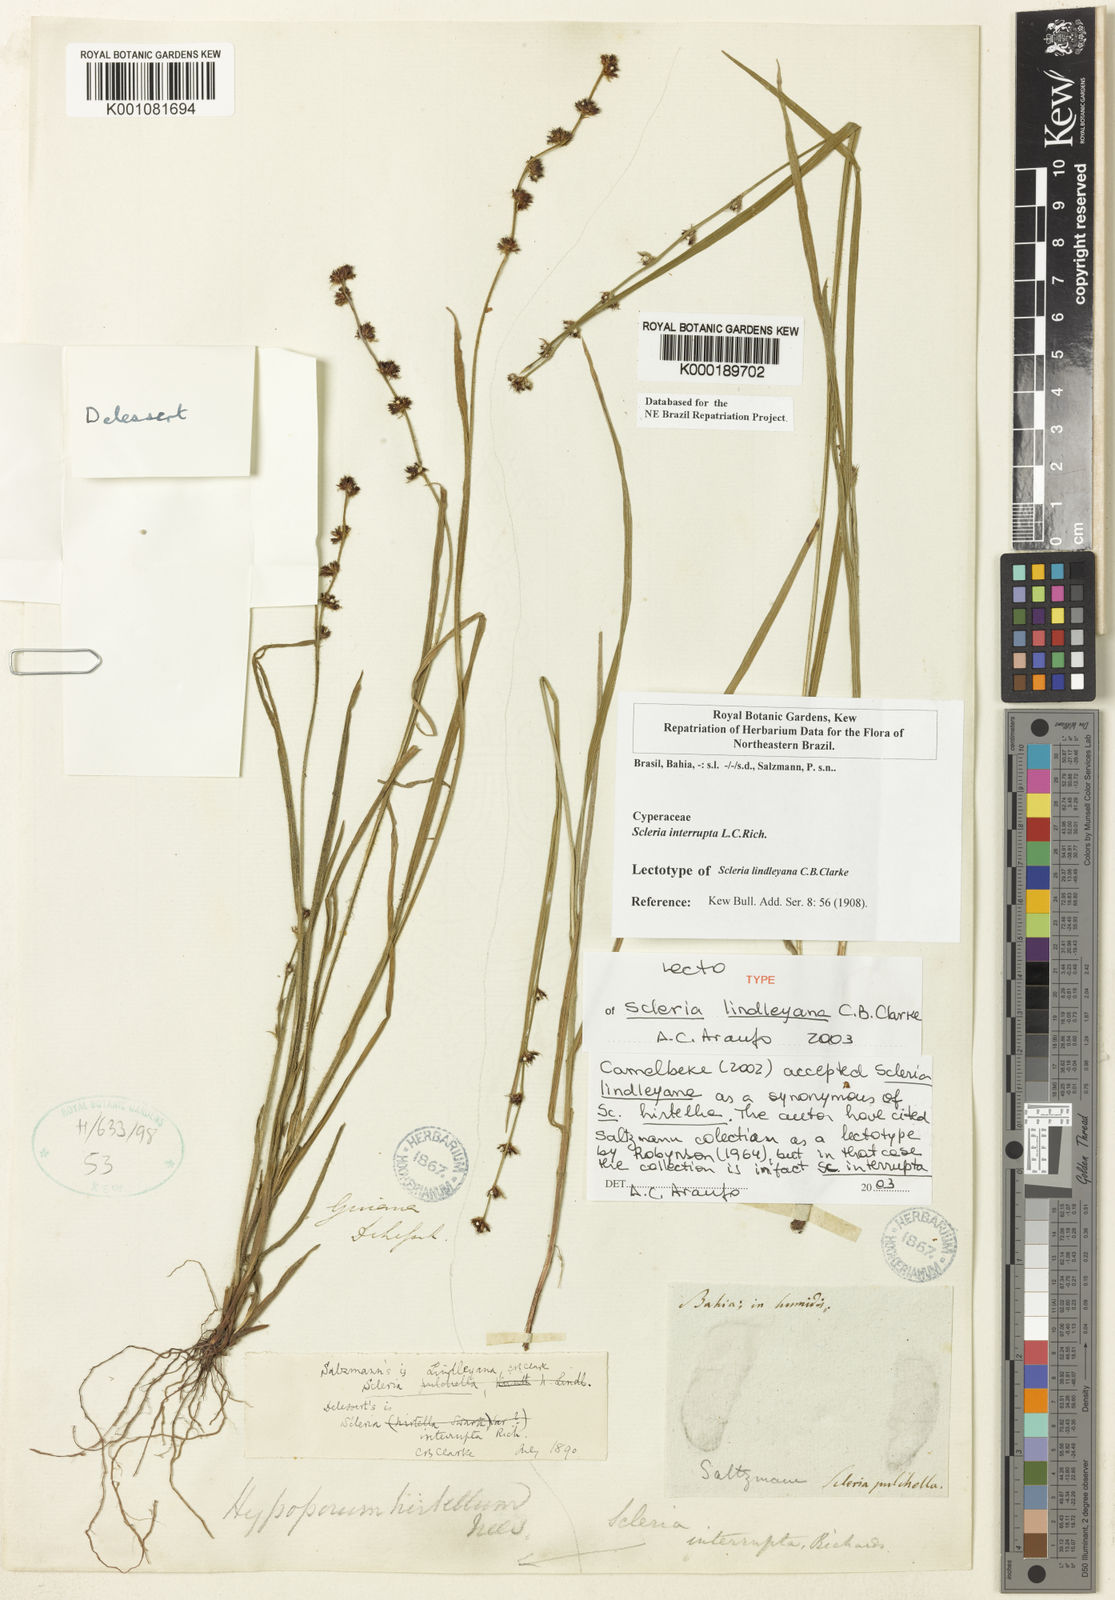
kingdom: Plantae
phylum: Tracheophyta
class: Liliopsida
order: Poales
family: Cyperaceae
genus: Scleria
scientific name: Scleria interrupta
